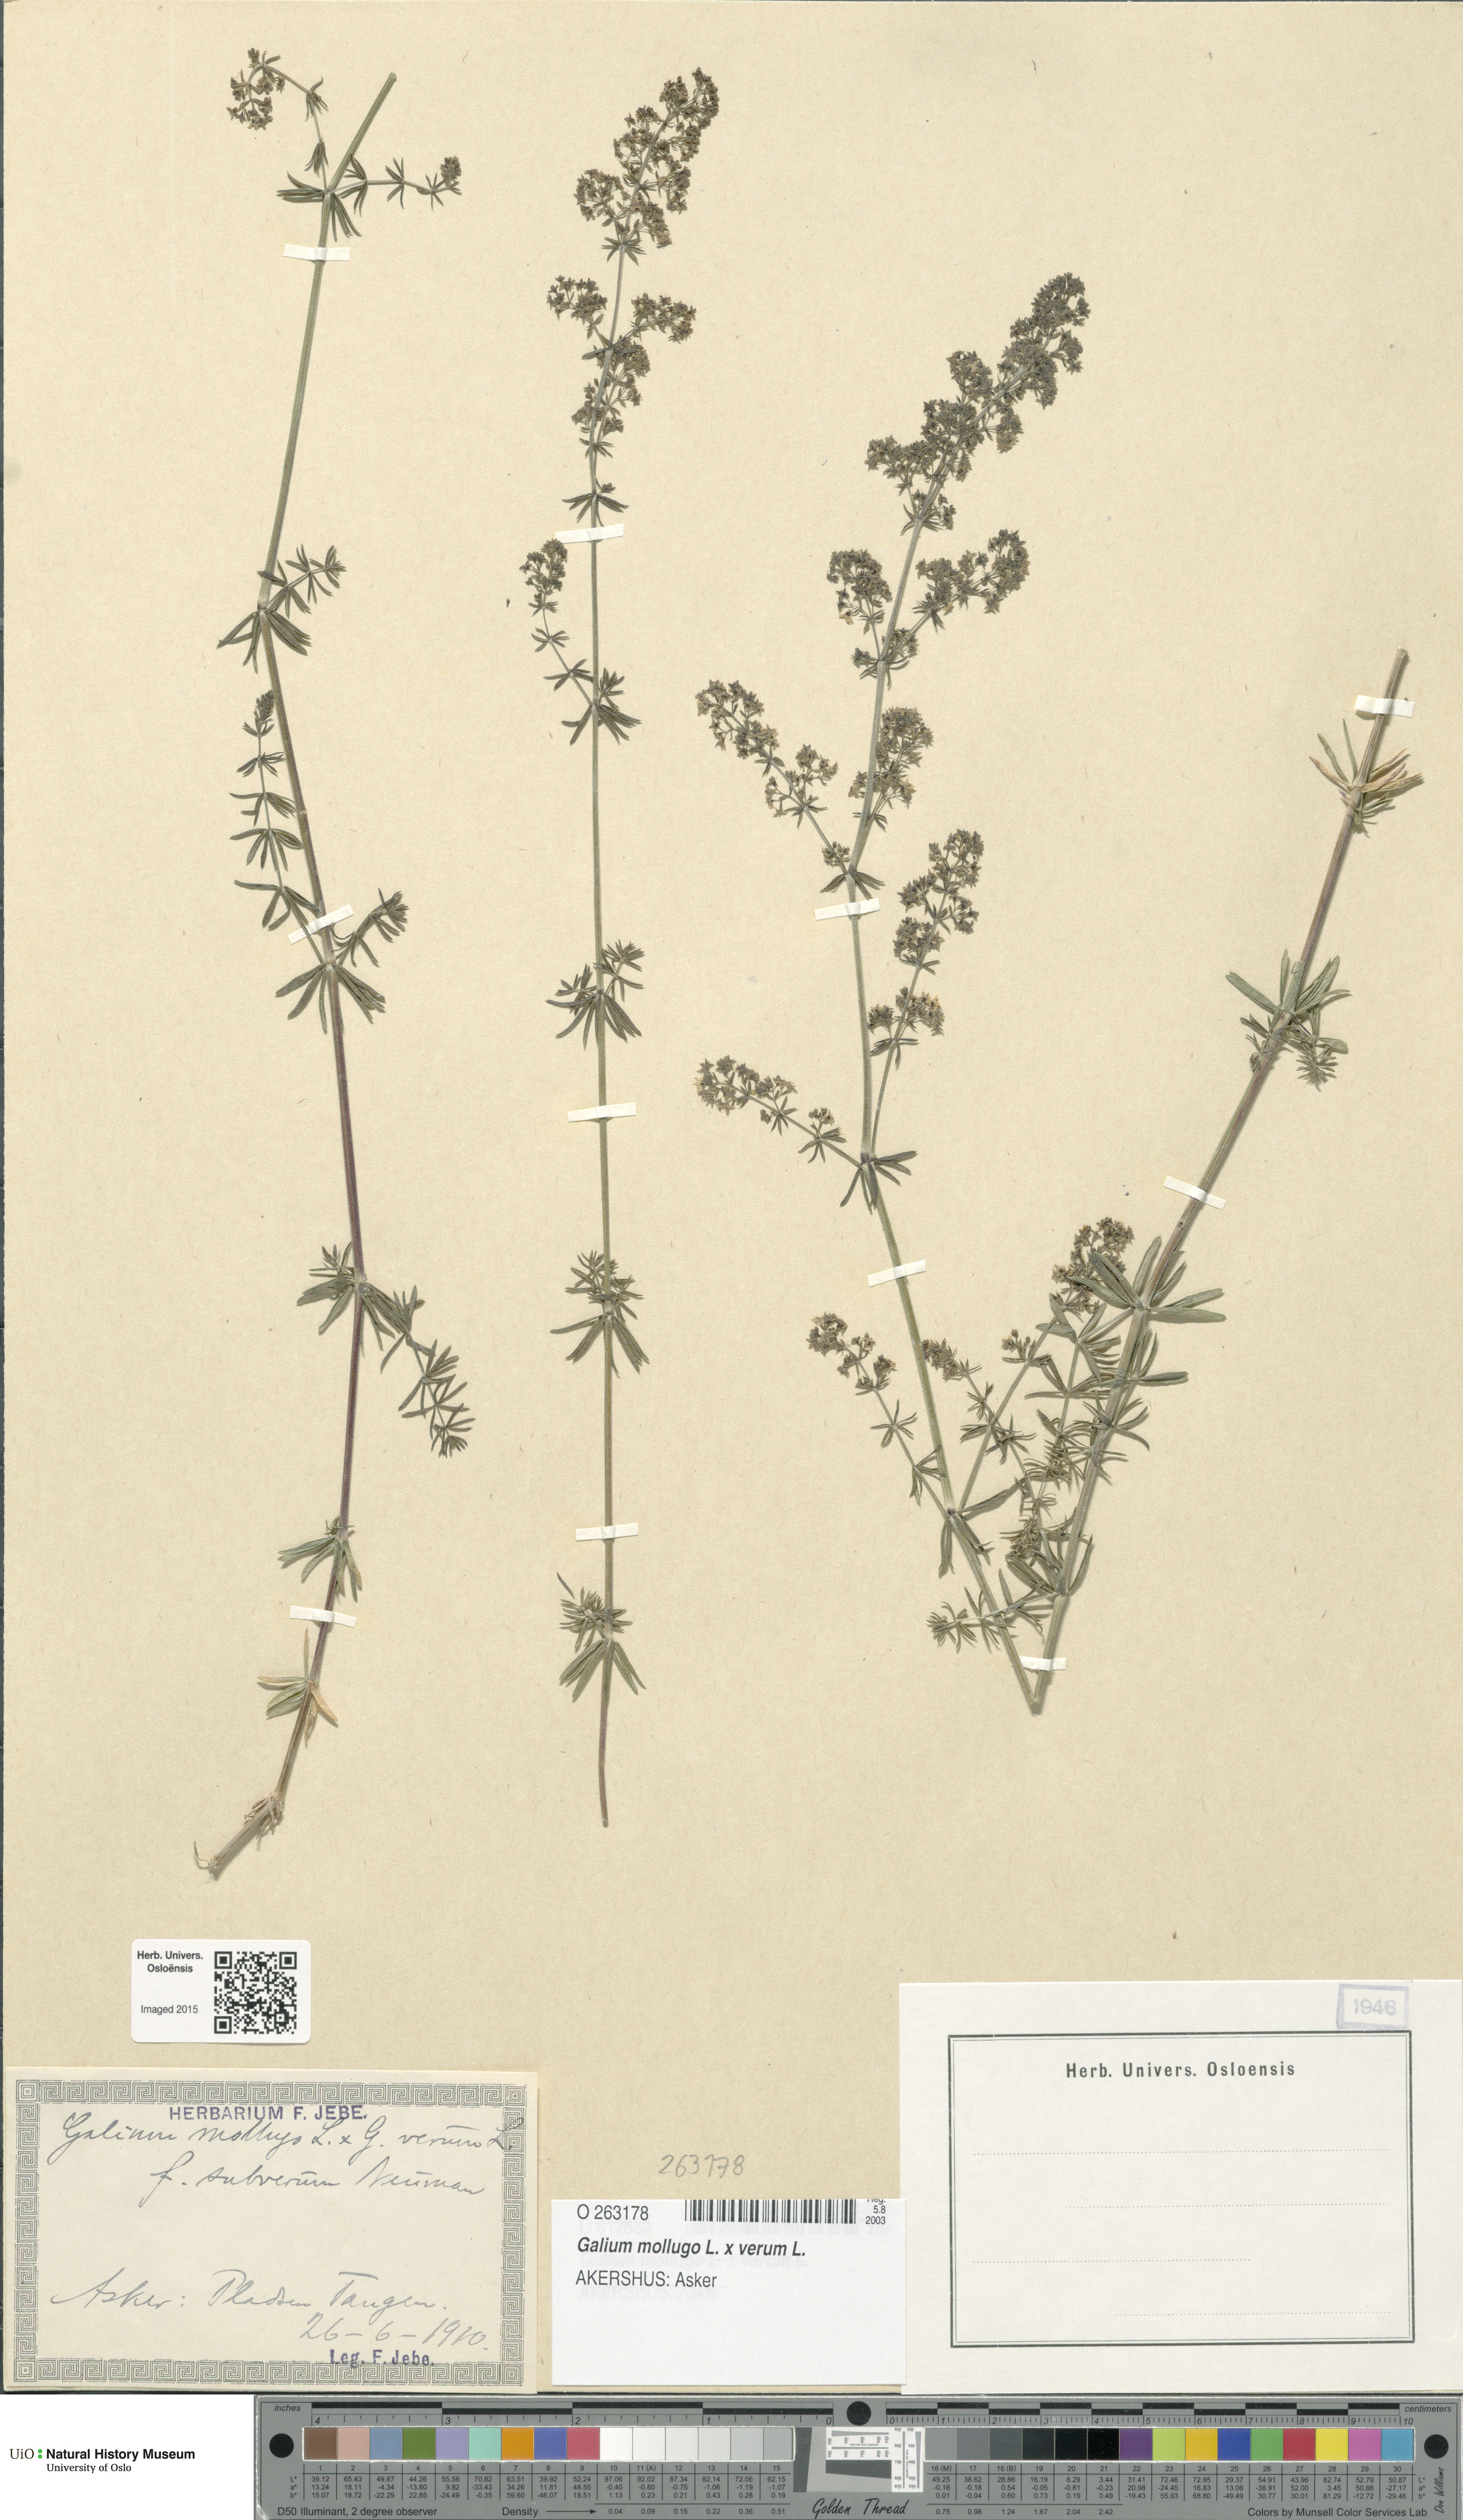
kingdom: Plantae
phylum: Tracheophyta
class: Magnoliopsida
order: Gentianales
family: Rubiaceae
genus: Galium
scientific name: Galium
